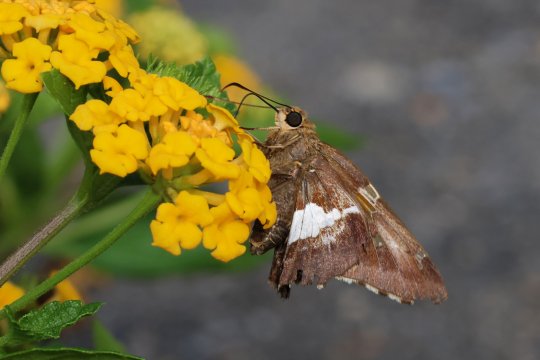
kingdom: Animalia
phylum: Arthropoda
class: Insecta
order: Lepidoptera
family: Hesperiidae
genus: Epargyreus
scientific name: Epargyreus clarus
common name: Silver-spotted Skipper
